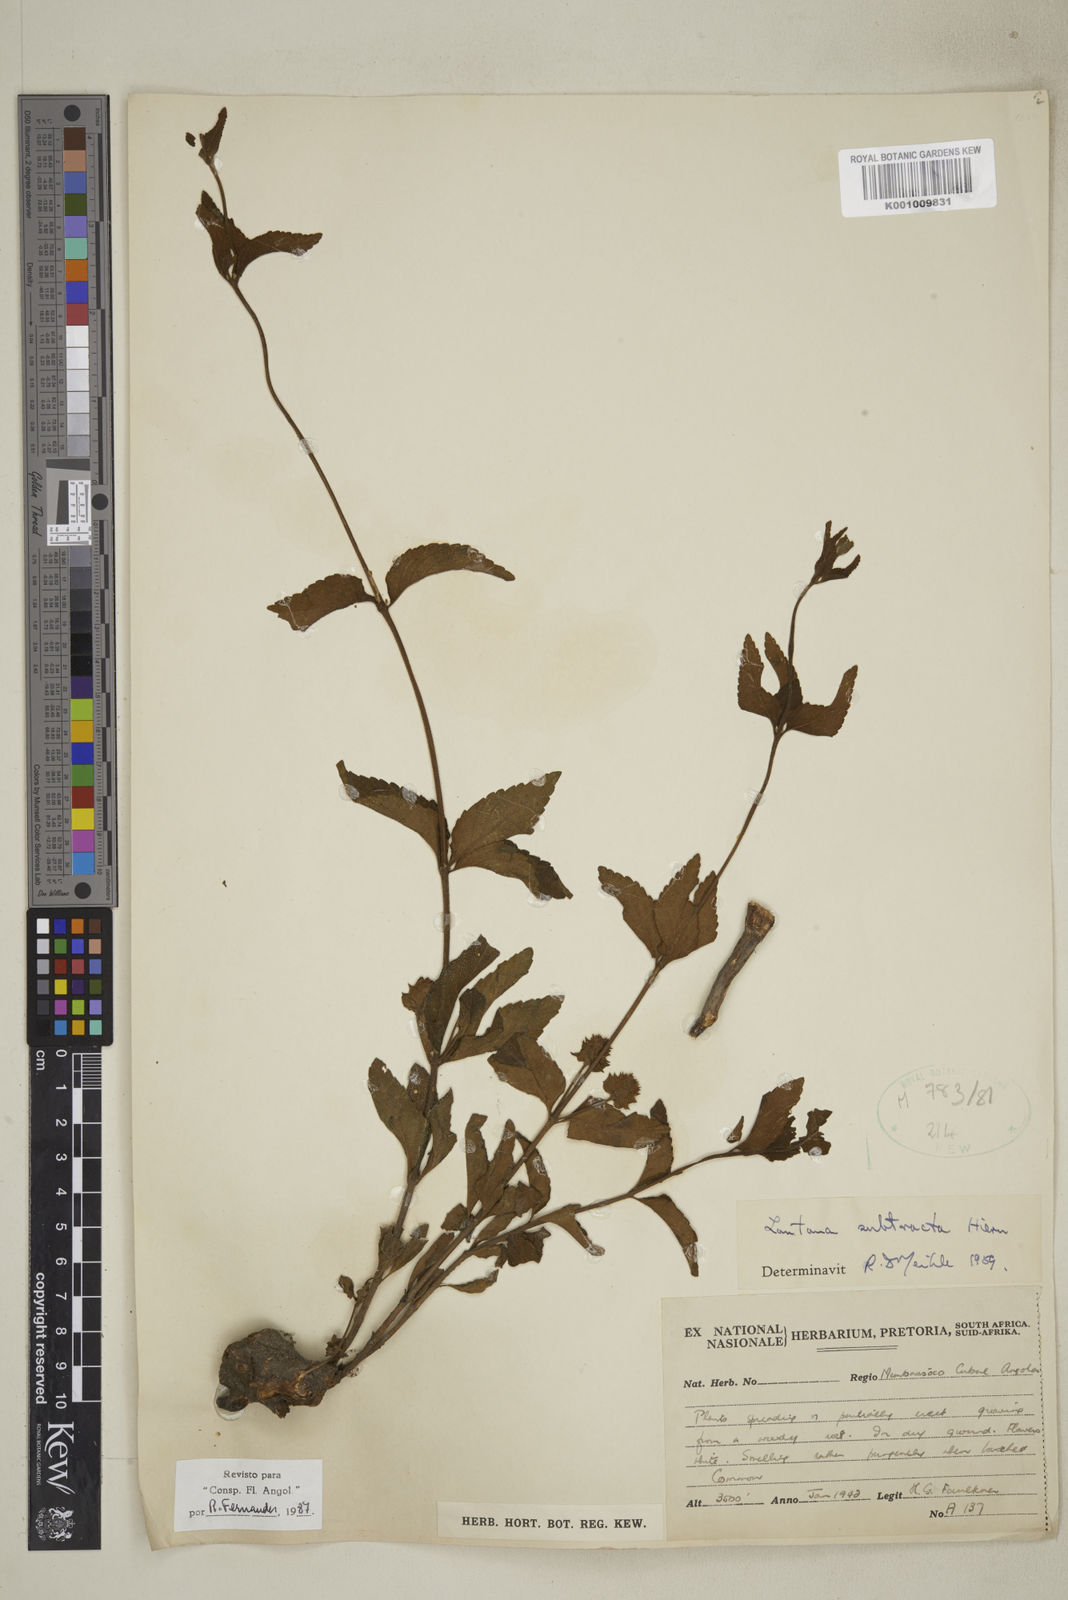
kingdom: Plantae
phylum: Tracheophyta
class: Magnoliopsida
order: Lamiales
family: Verbenaceae
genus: Lantana
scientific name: Lantana subtracta
